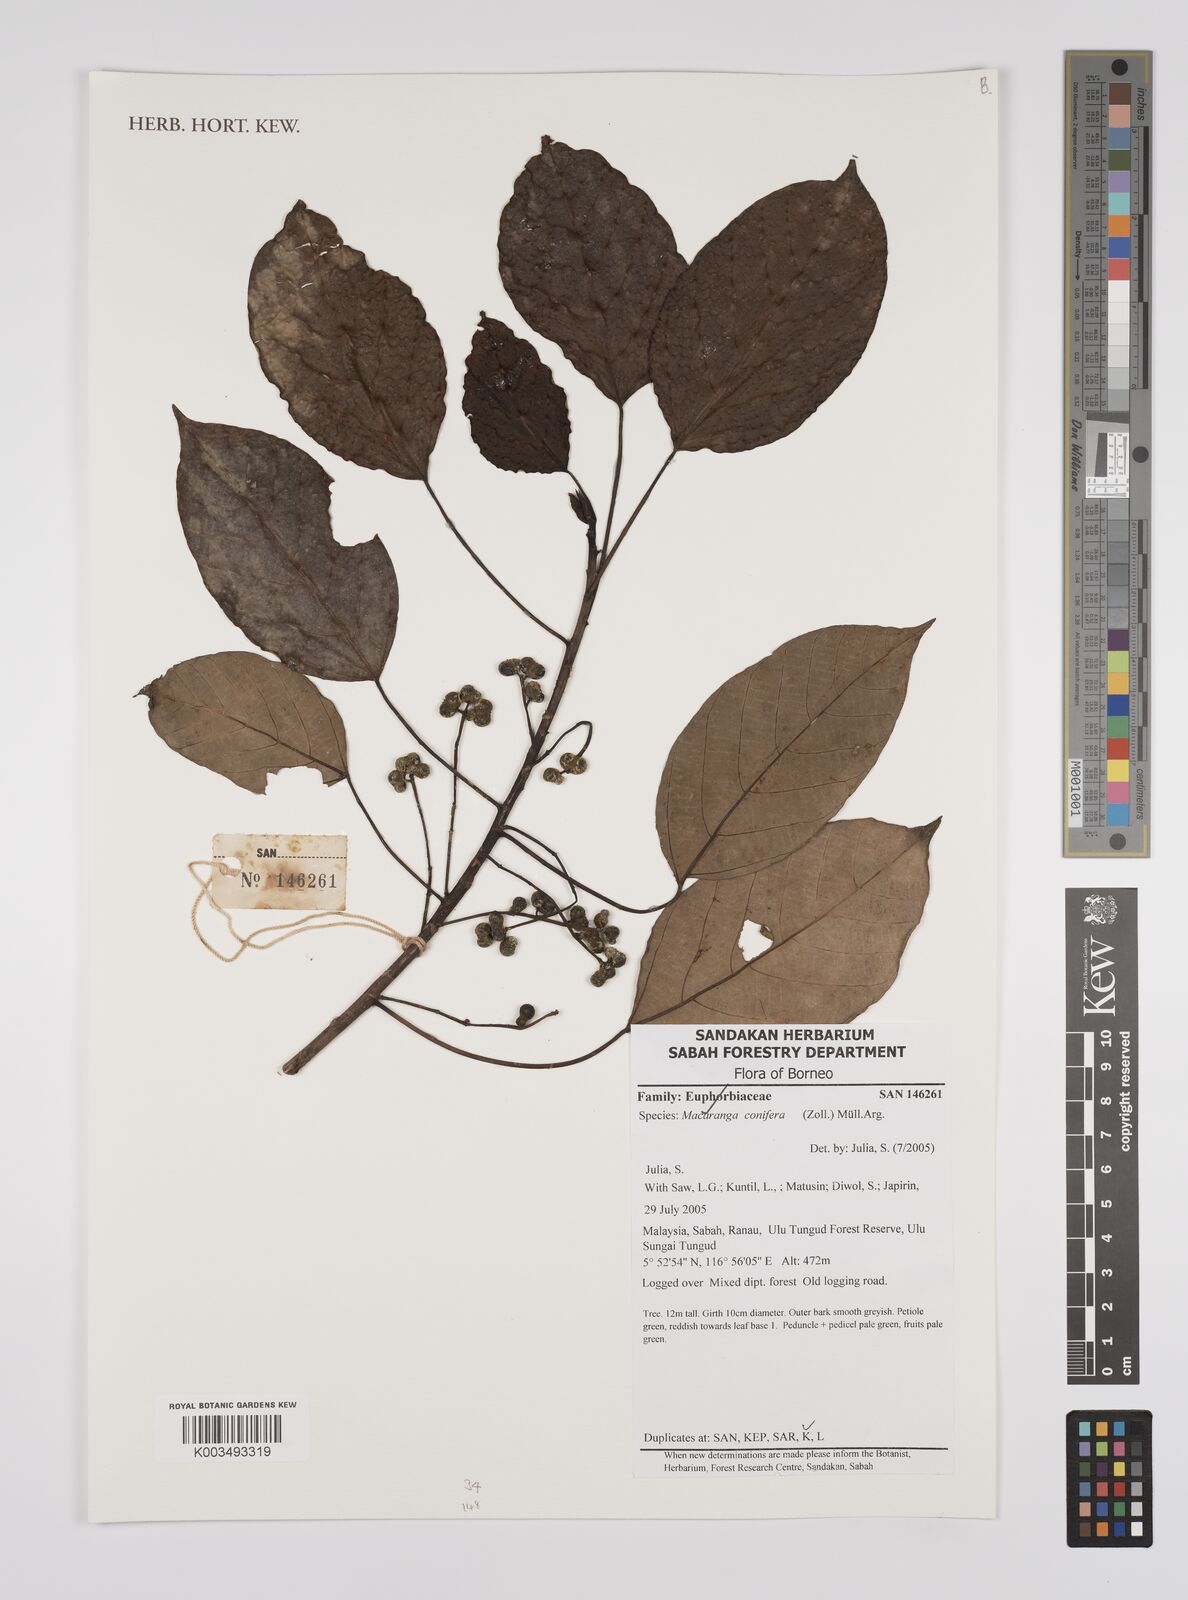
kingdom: Plantae
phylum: Tracheophyta
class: Magnoliopsida
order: Malpighiales
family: Euphorbiaceae
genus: Macaranga
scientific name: Macaranga conifera
